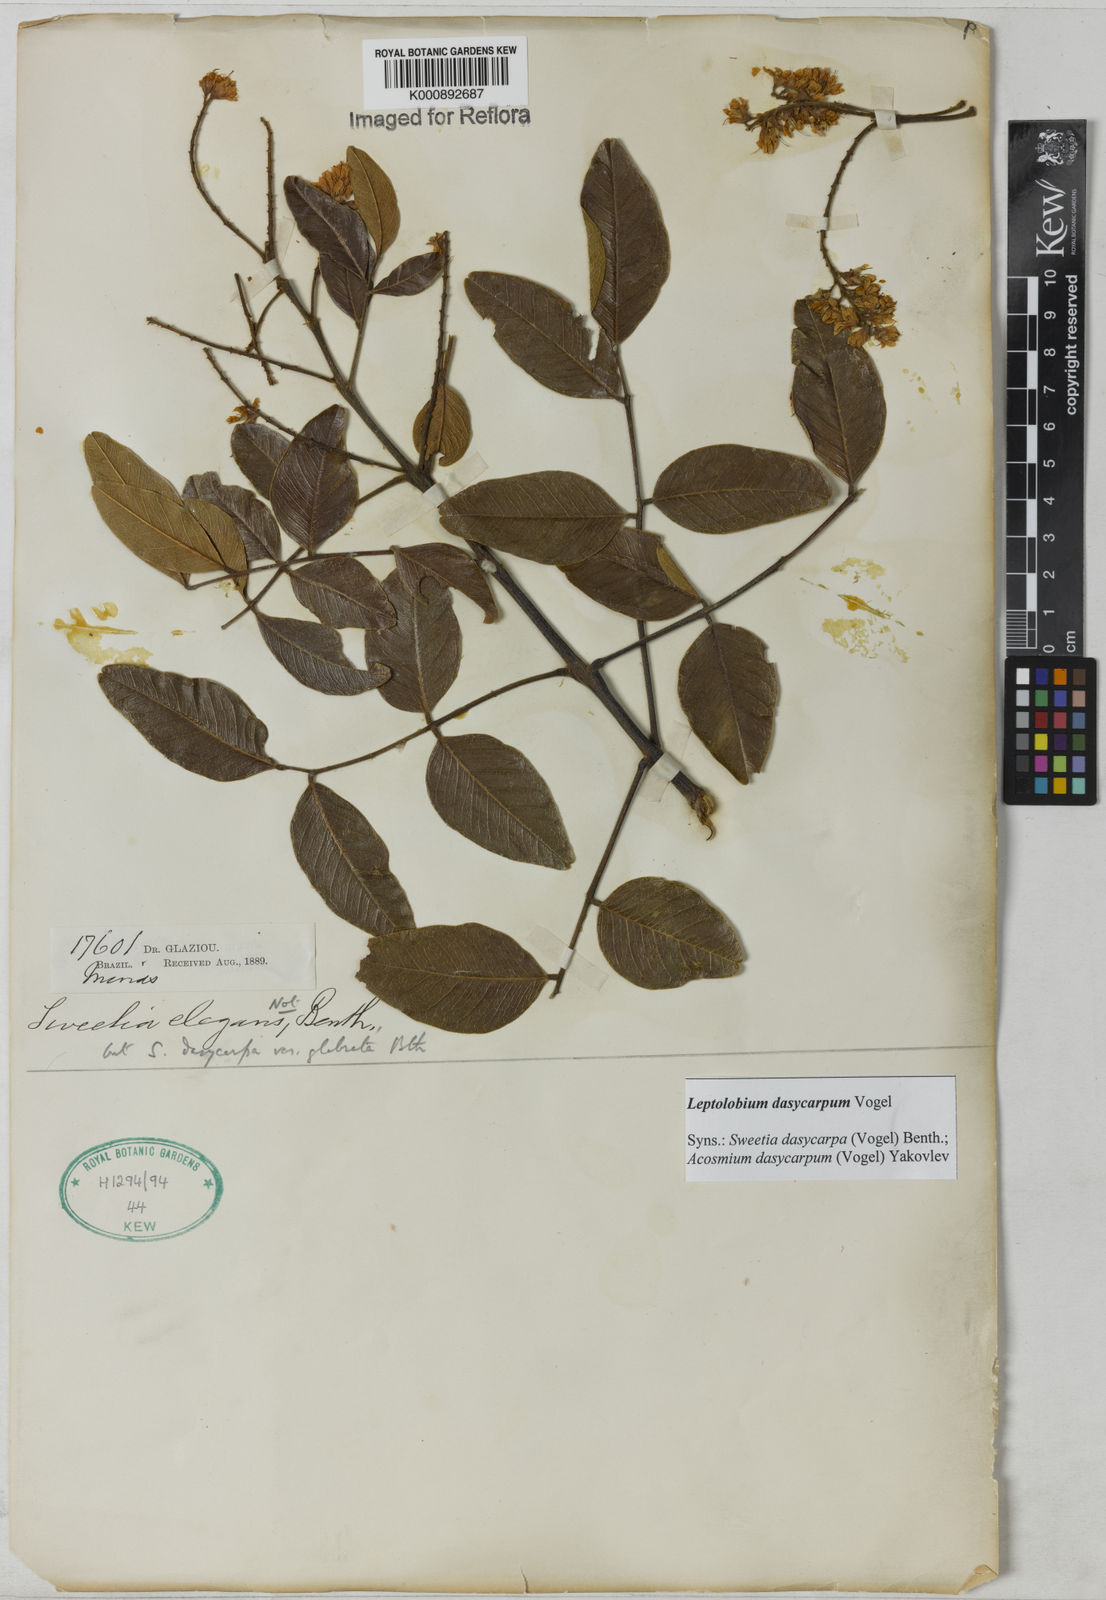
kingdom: Plantae
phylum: Tracheophyta
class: Magnoliopsida
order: Fabales
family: Fabaceae
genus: Leptolobium
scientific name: Leptolobium dasycarpum
